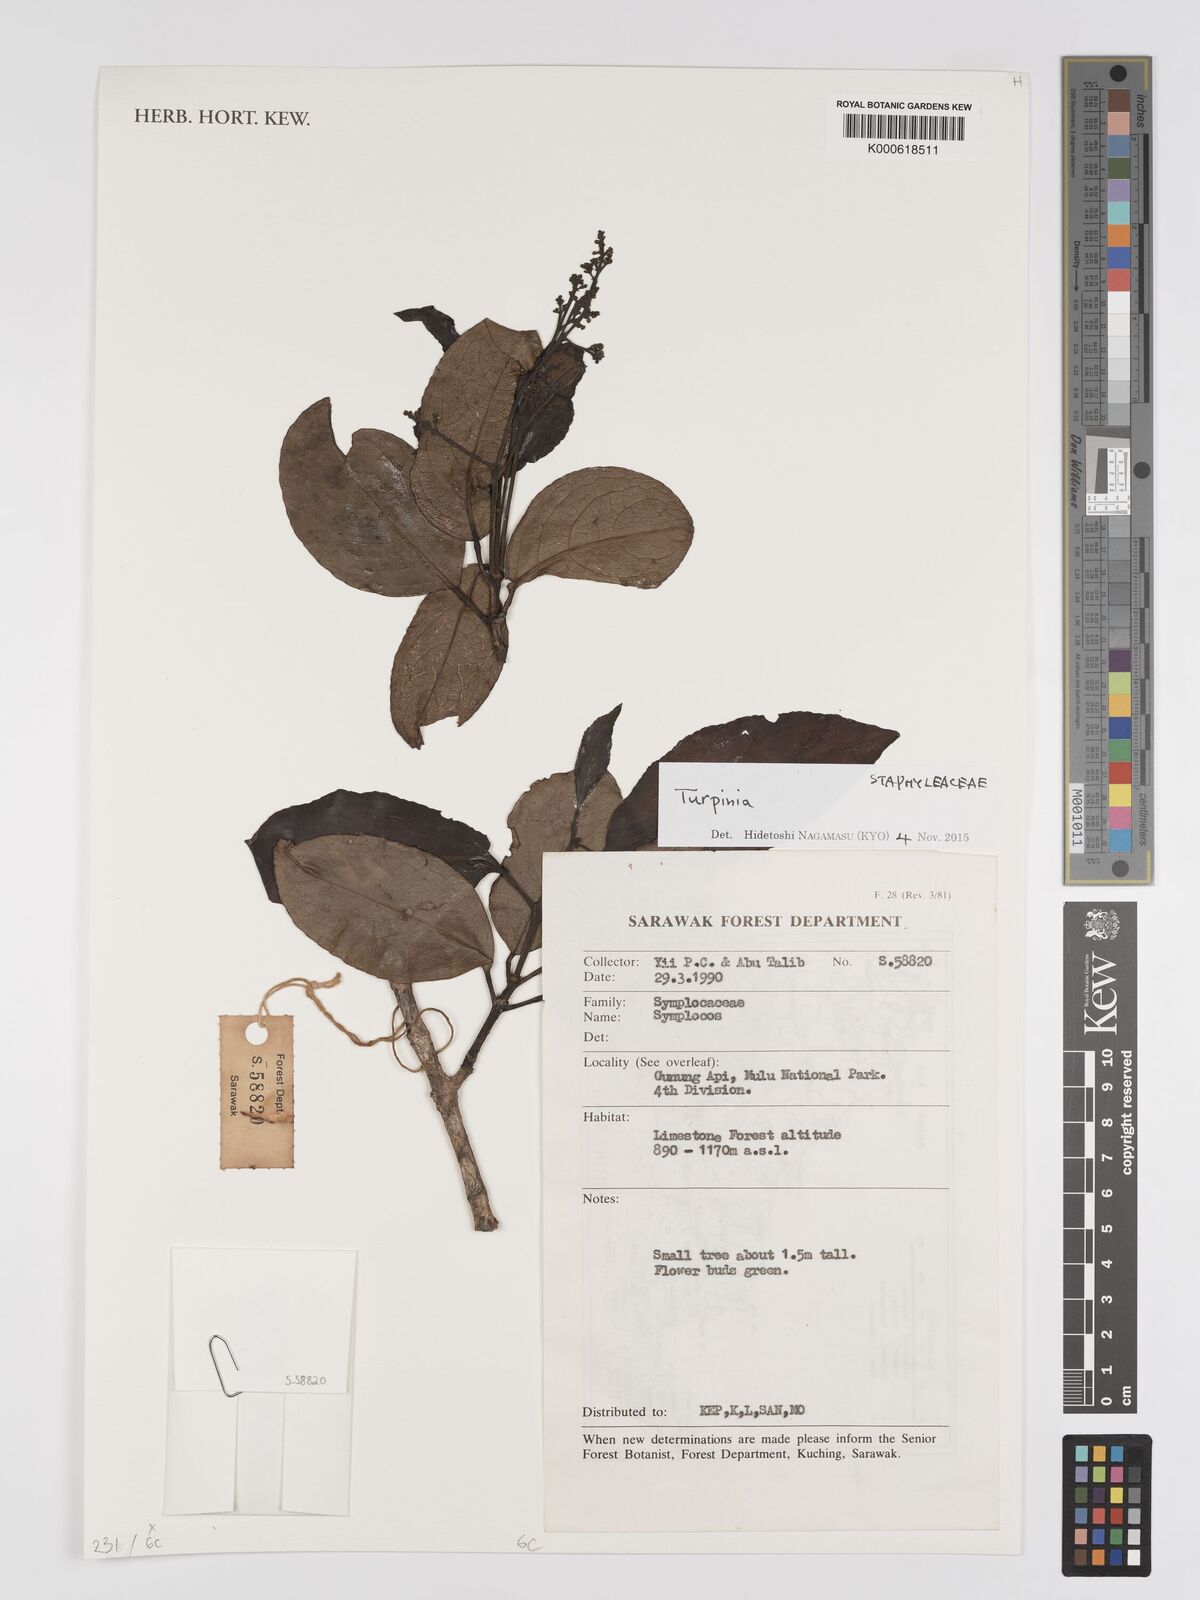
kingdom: Plantae
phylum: Tracheophyta
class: Magnoliopsida
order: Crossosomatales
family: Staphyleaceae
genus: Turpinia
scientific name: Turpinia
